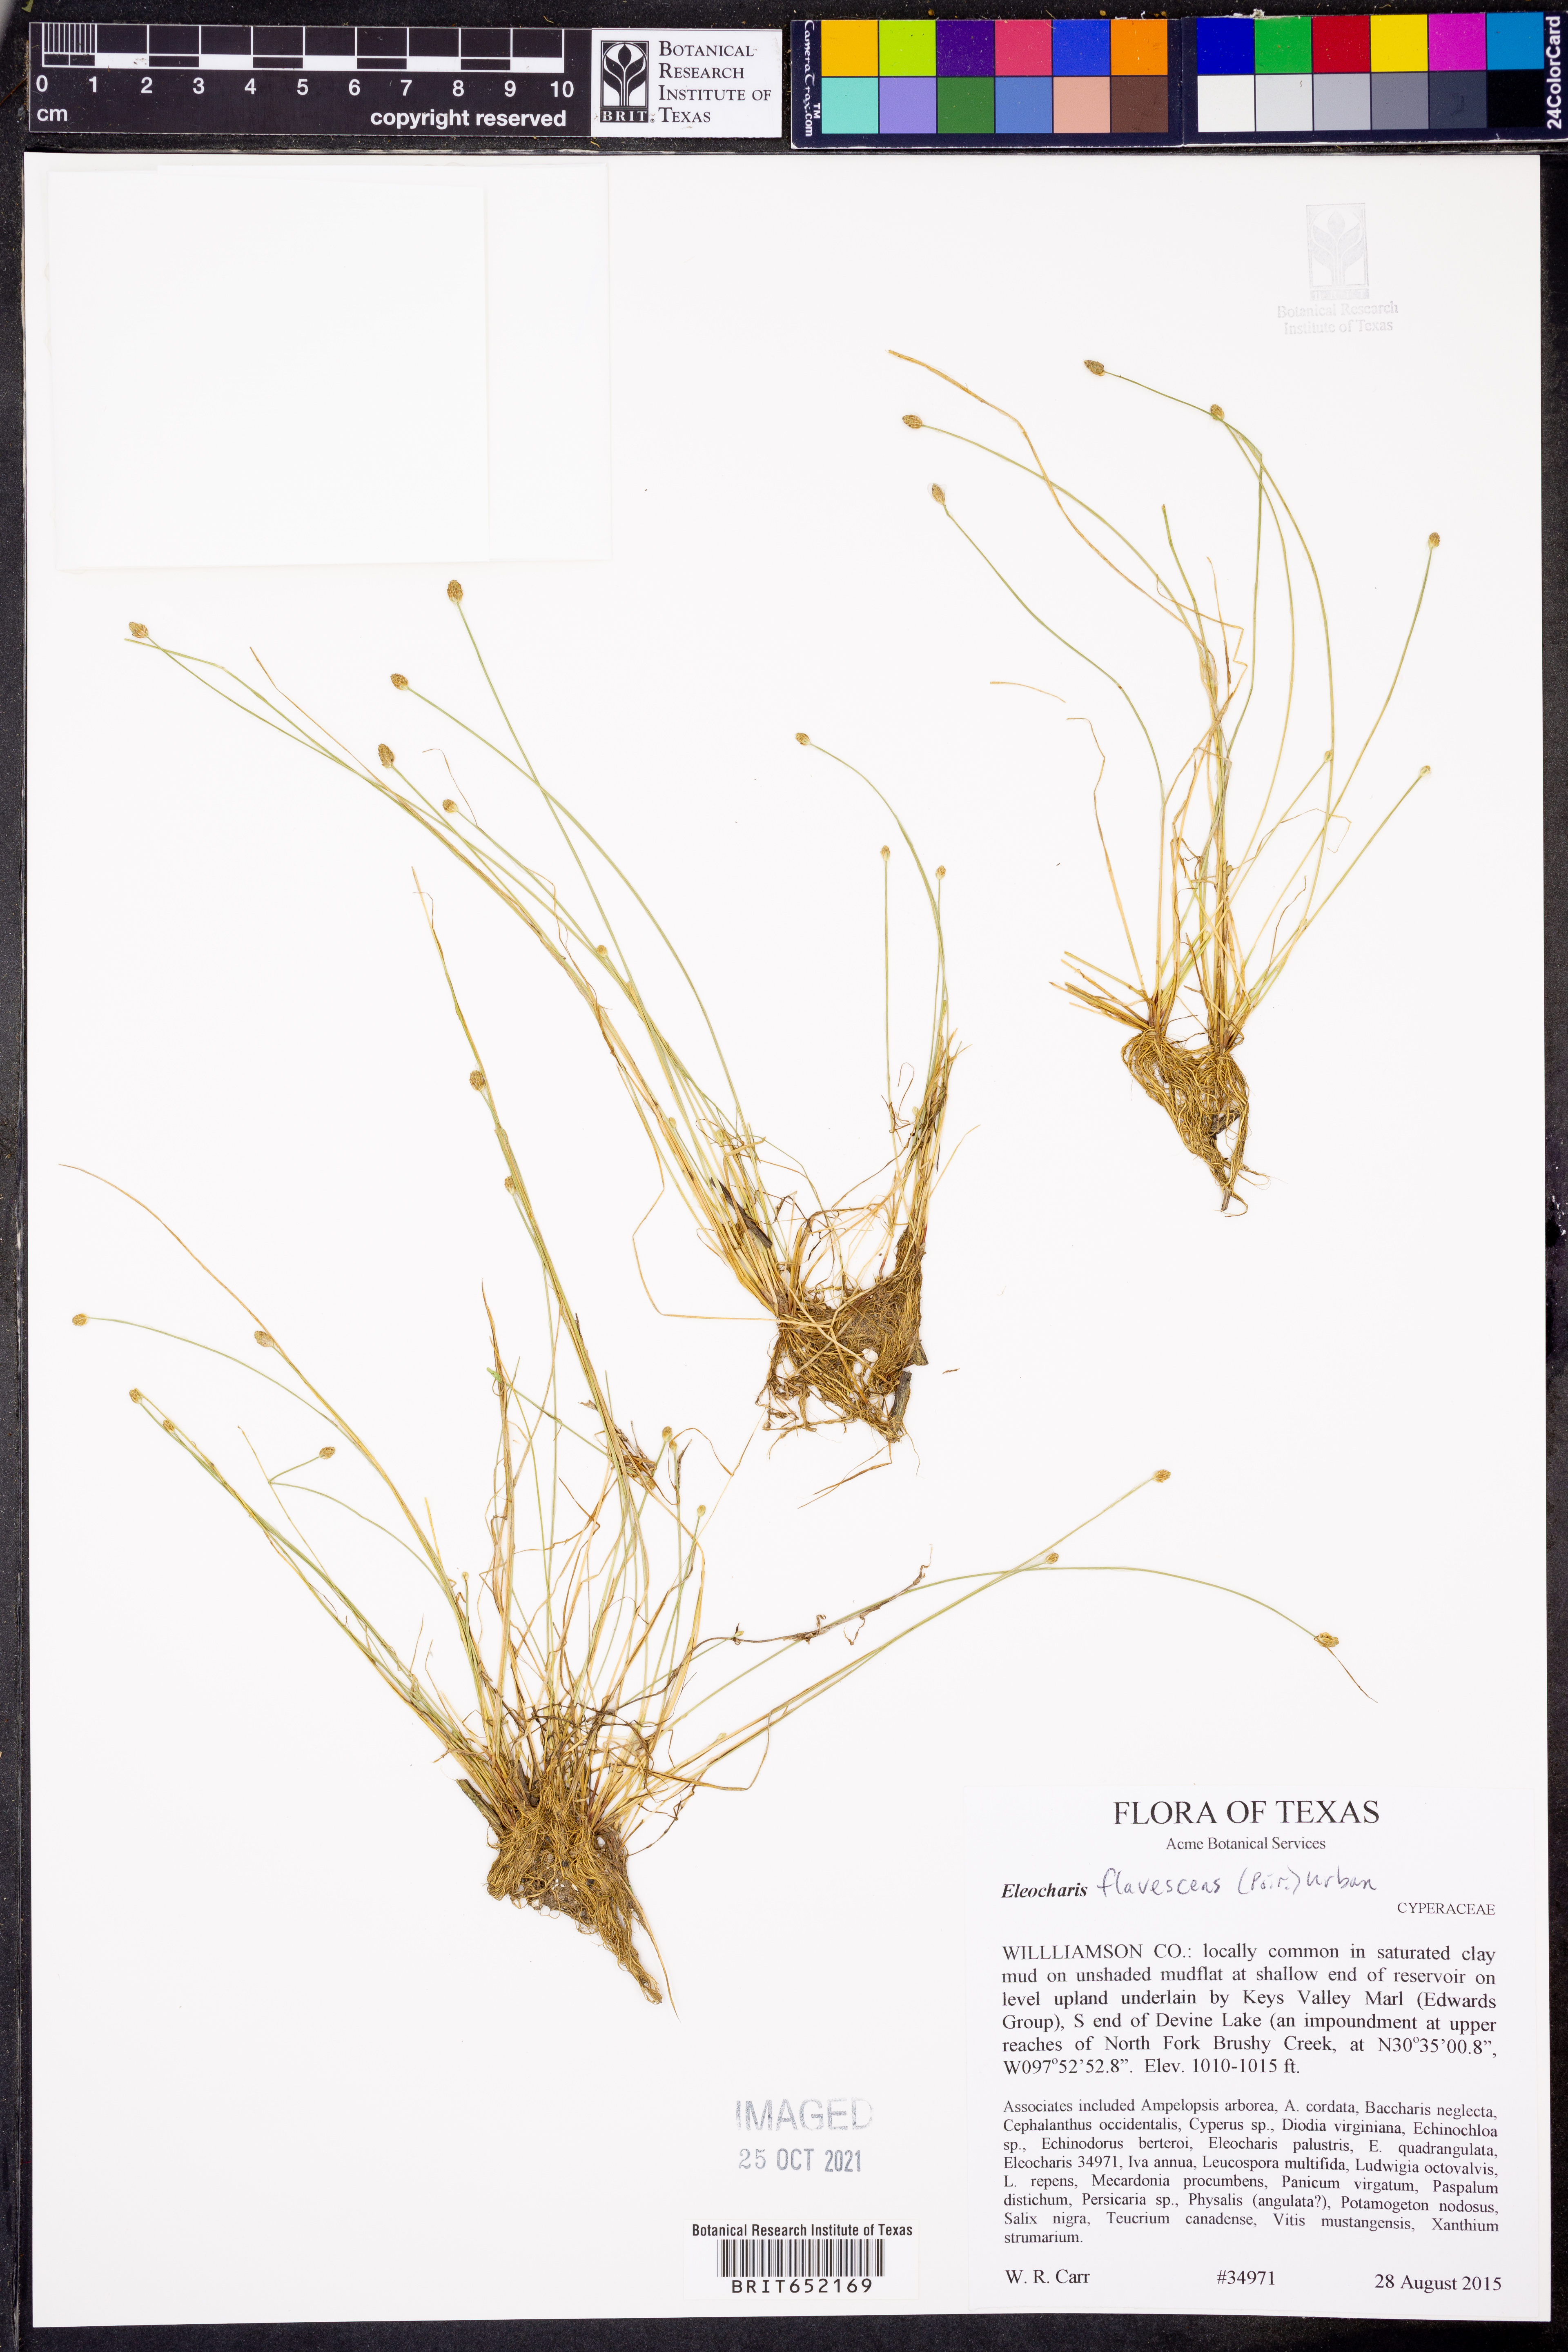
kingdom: Plantae
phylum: Tracheophyta
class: Liliopsida
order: Poales
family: Cyperaceae
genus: Eleocharis
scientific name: Eleocharis flavescens
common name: Yellow spikerush
